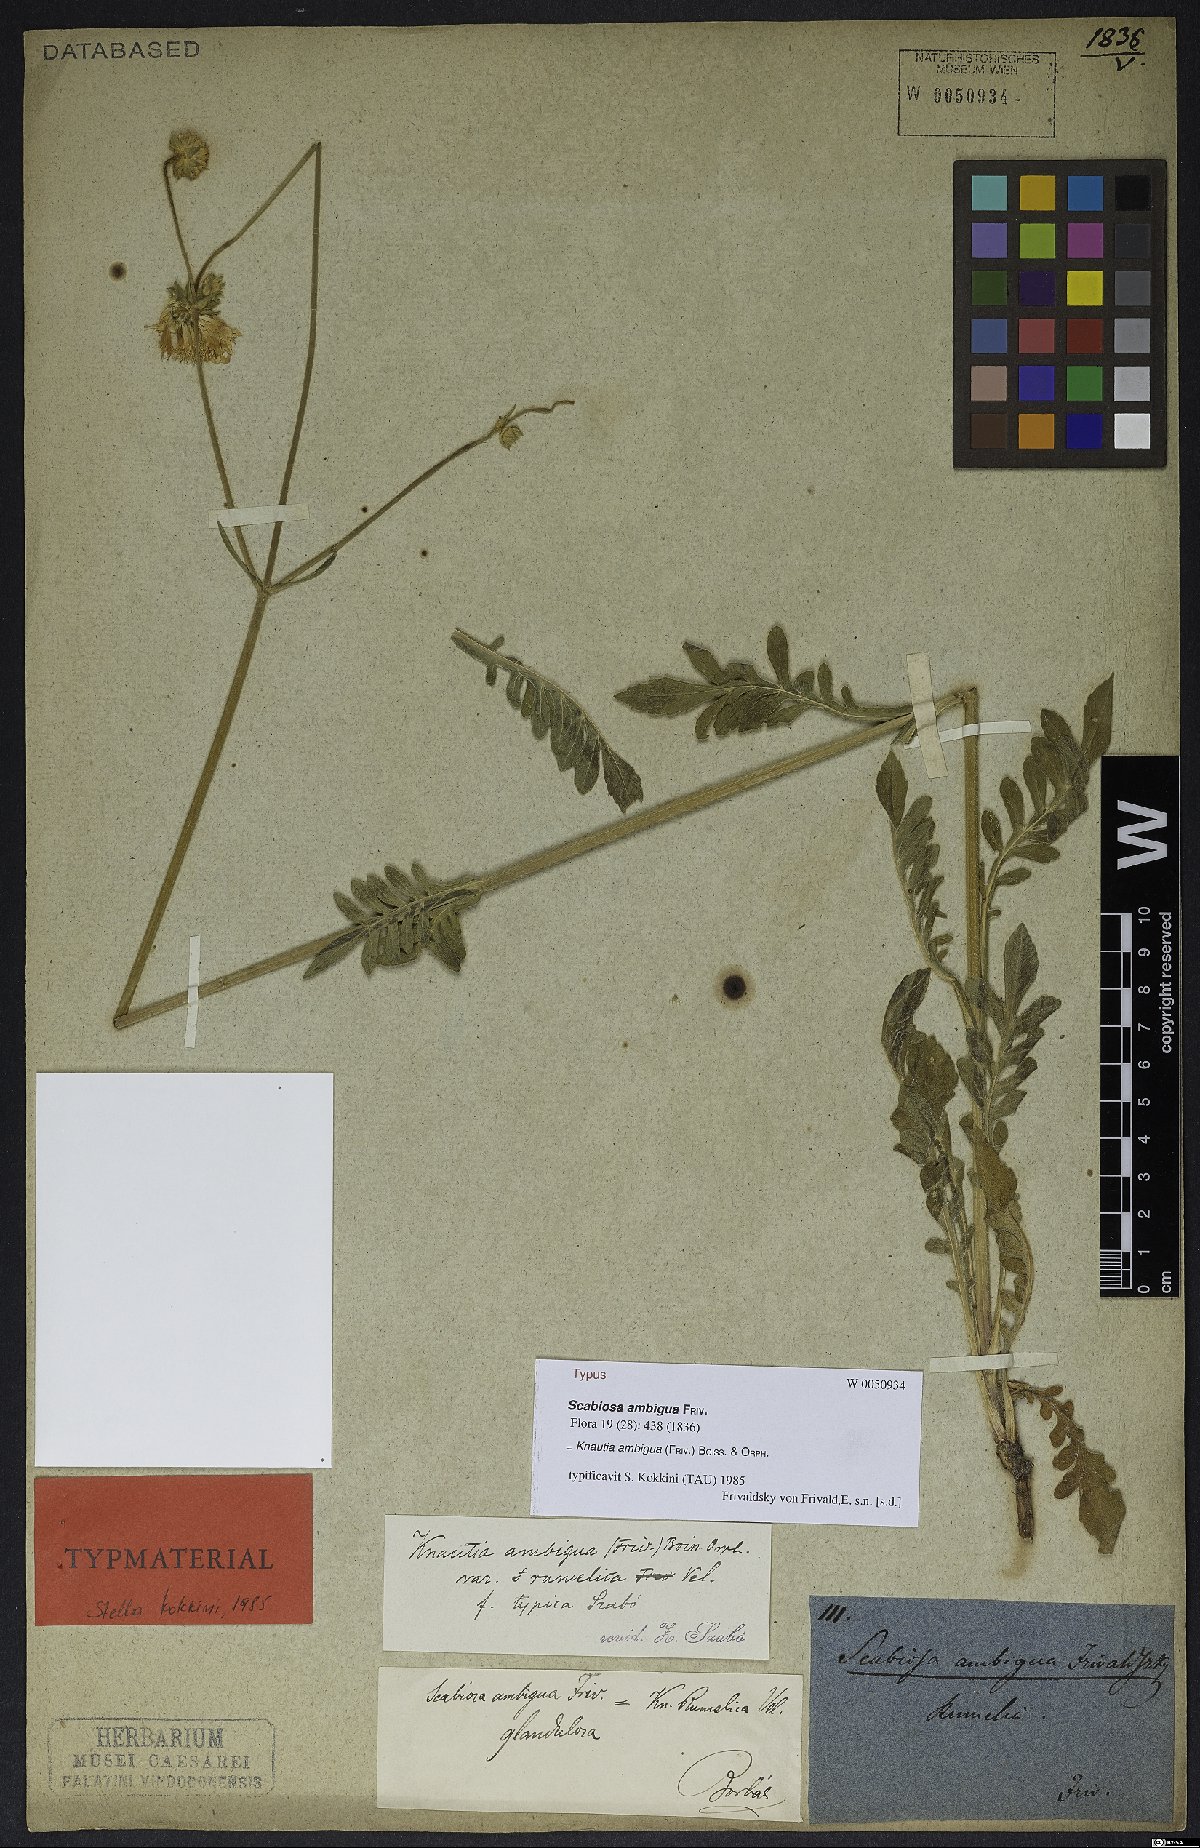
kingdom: Plantae
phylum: Tracheophyta
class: Magnoliopsida
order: Dipsacales
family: Caprifoliaceae
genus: Knautia
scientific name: Knautia ambigua
